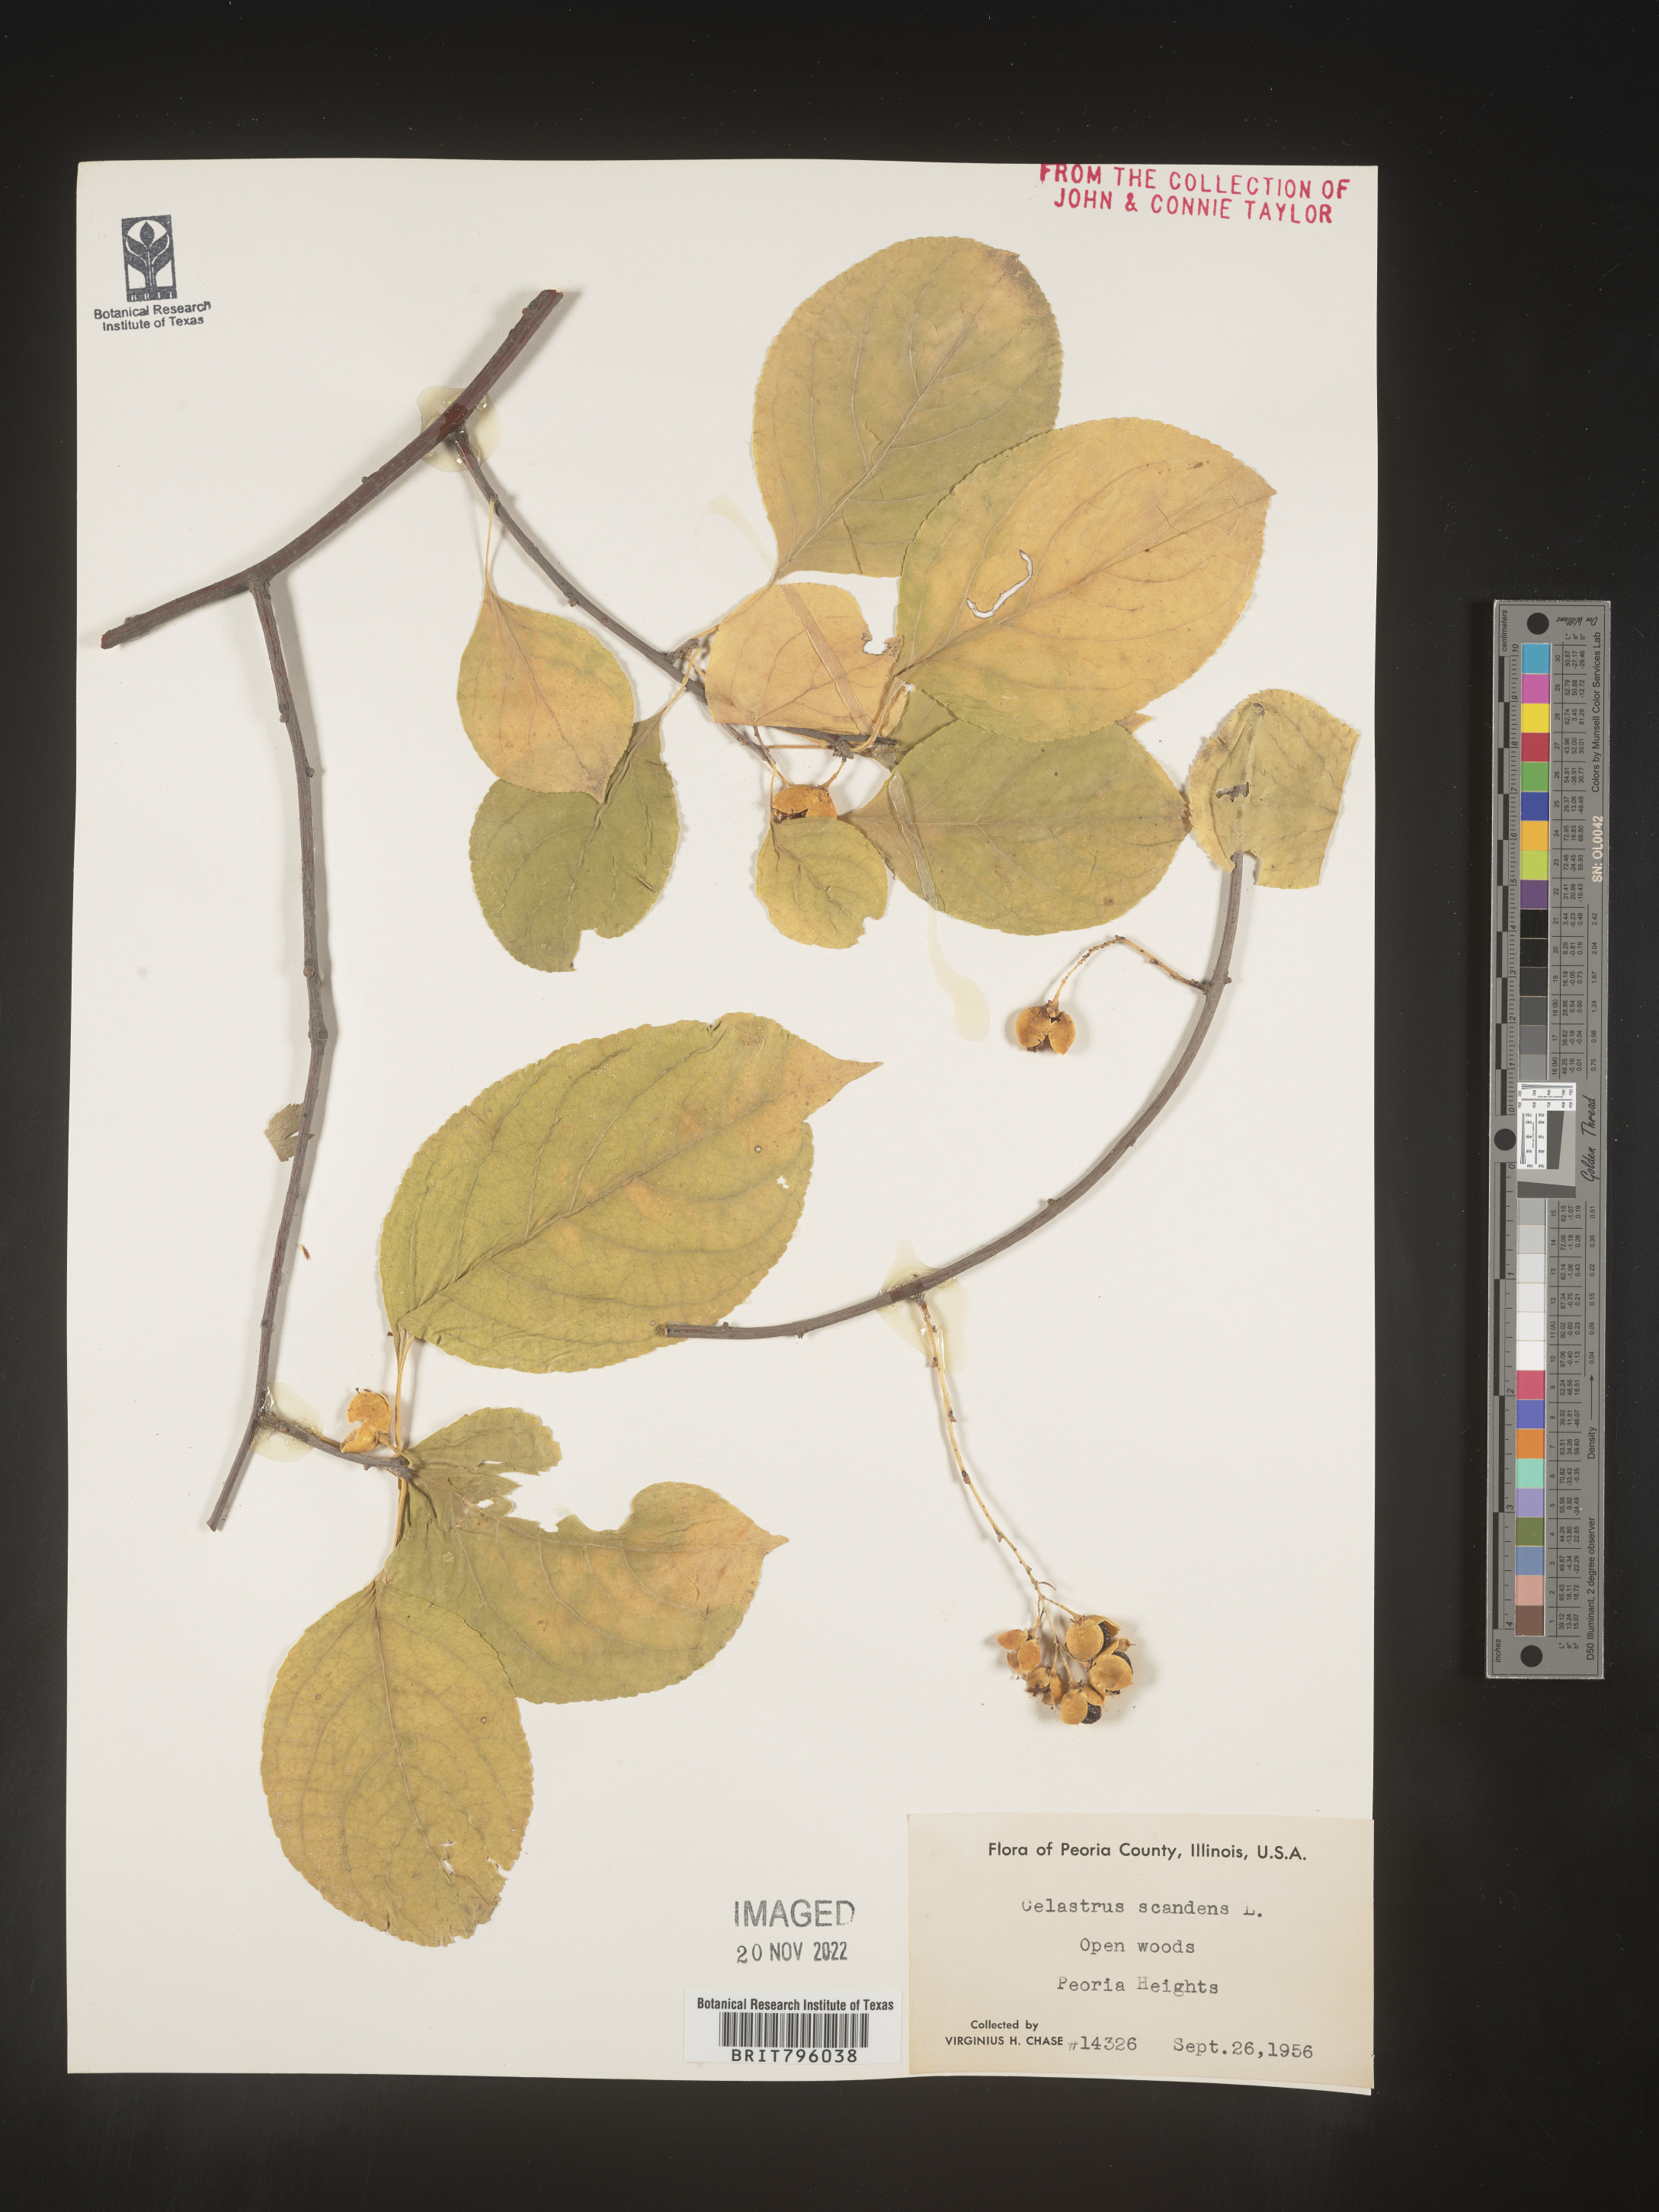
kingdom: Plantae
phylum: Tracheophyta
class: Magnoliopsida
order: Celastrales
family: Celastraceae
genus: Celastrus
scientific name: Celastrus scandens
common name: American bittersweet
